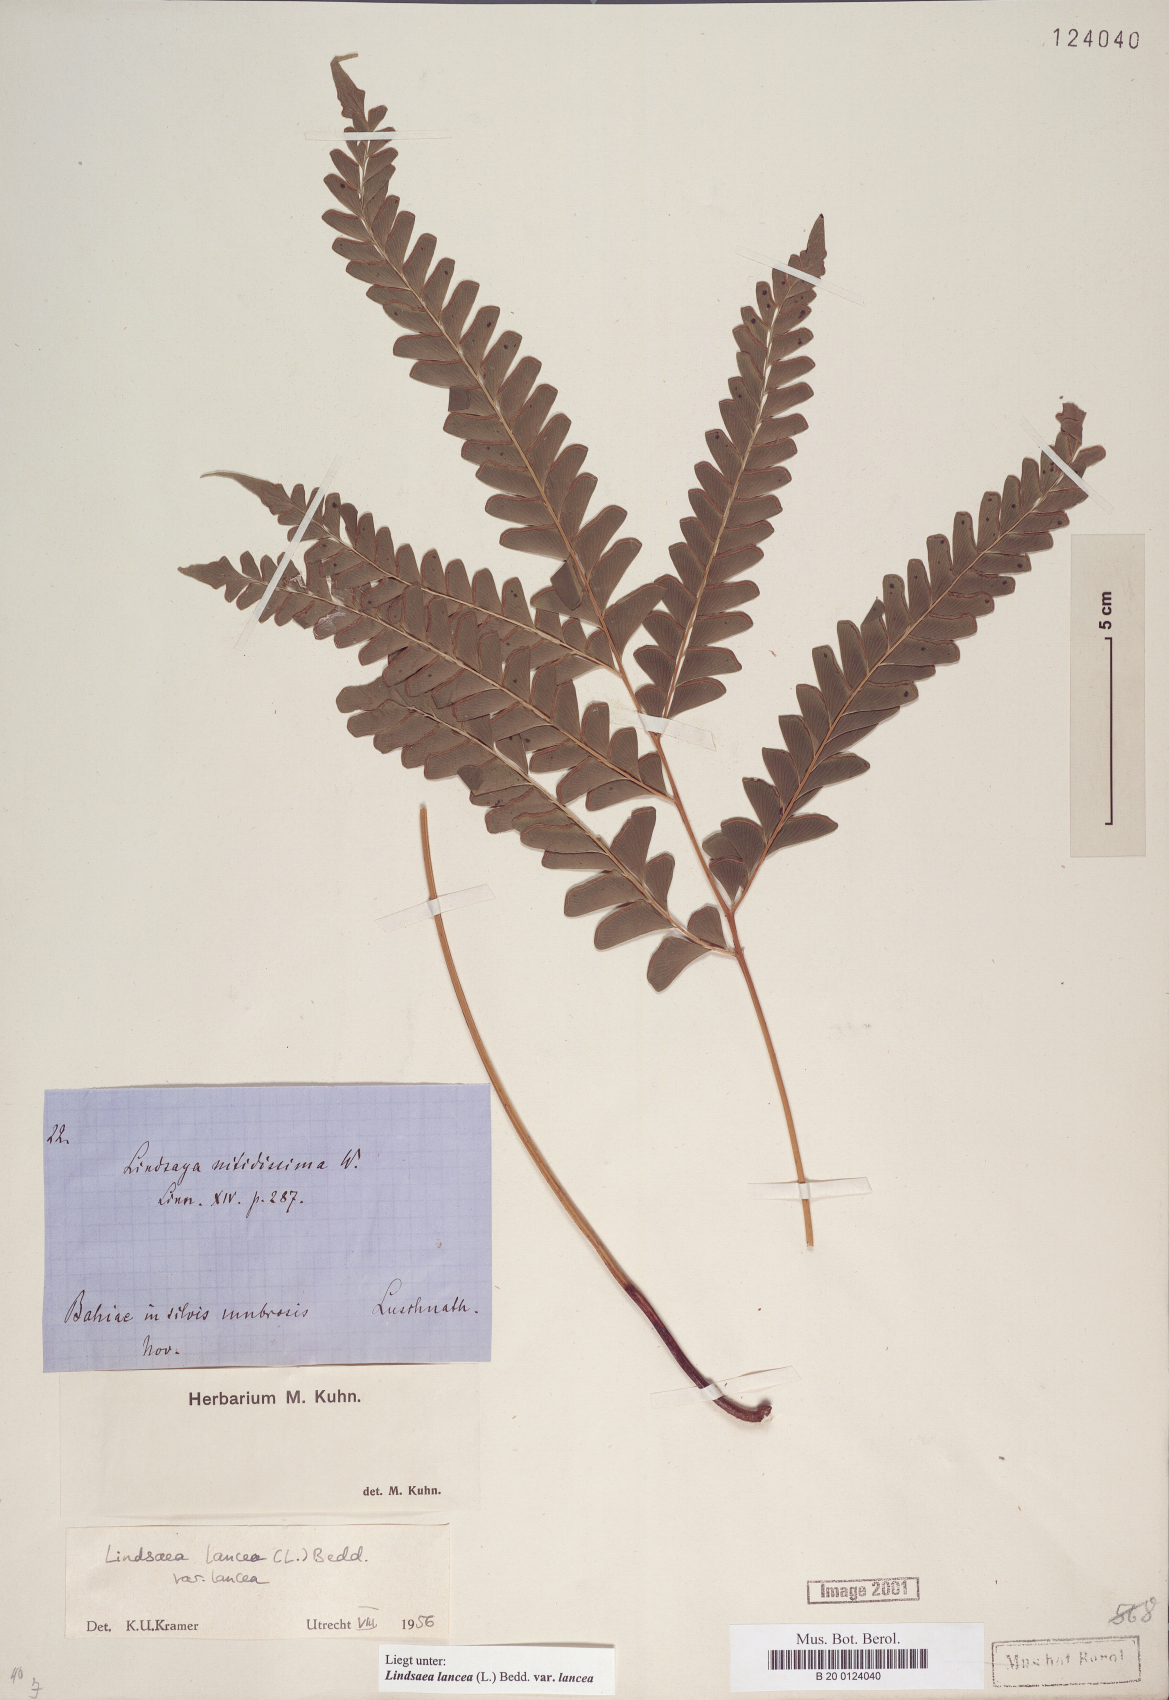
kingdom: Plantae
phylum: Tracheophyta
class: Polypodiopsida
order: Polypodiales
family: Lindsaeaceae
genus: Lindsaea
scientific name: Lindsaea lancea
